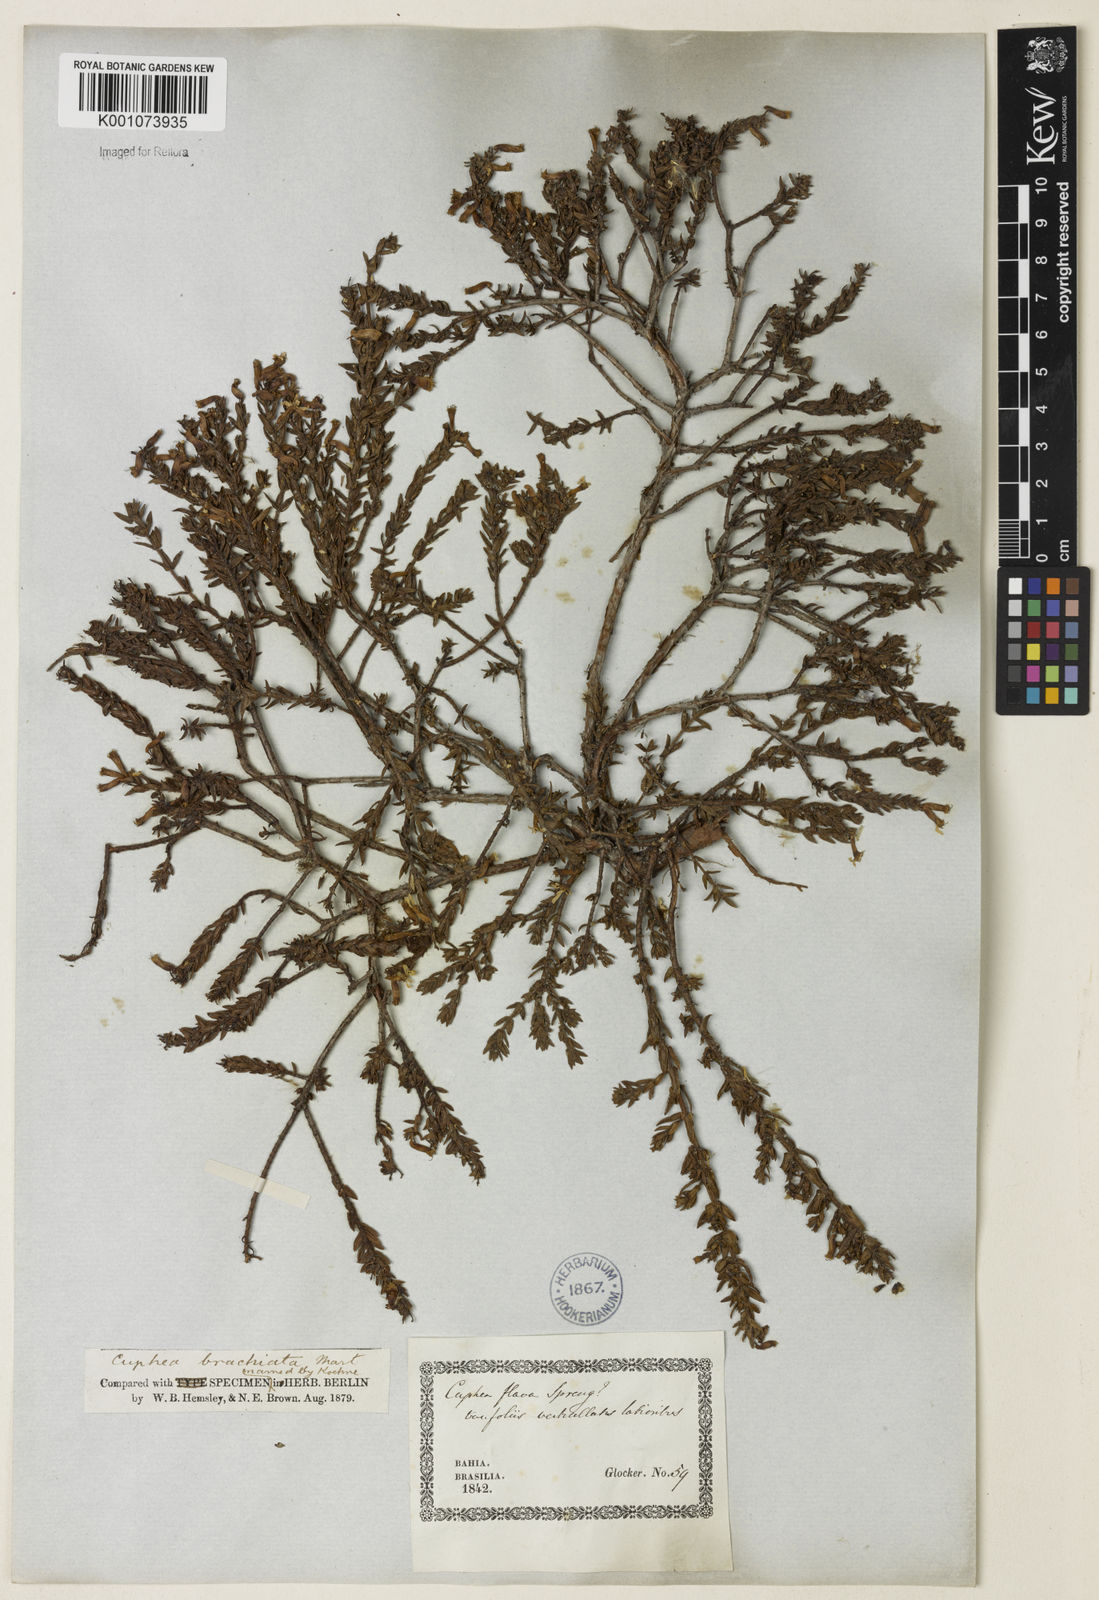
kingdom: Plantae
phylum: Tracheophyta
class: Magnoliopsida
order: Myrtales
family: Lythraceae
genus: Cuphea
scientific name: Cuphea brachiata
